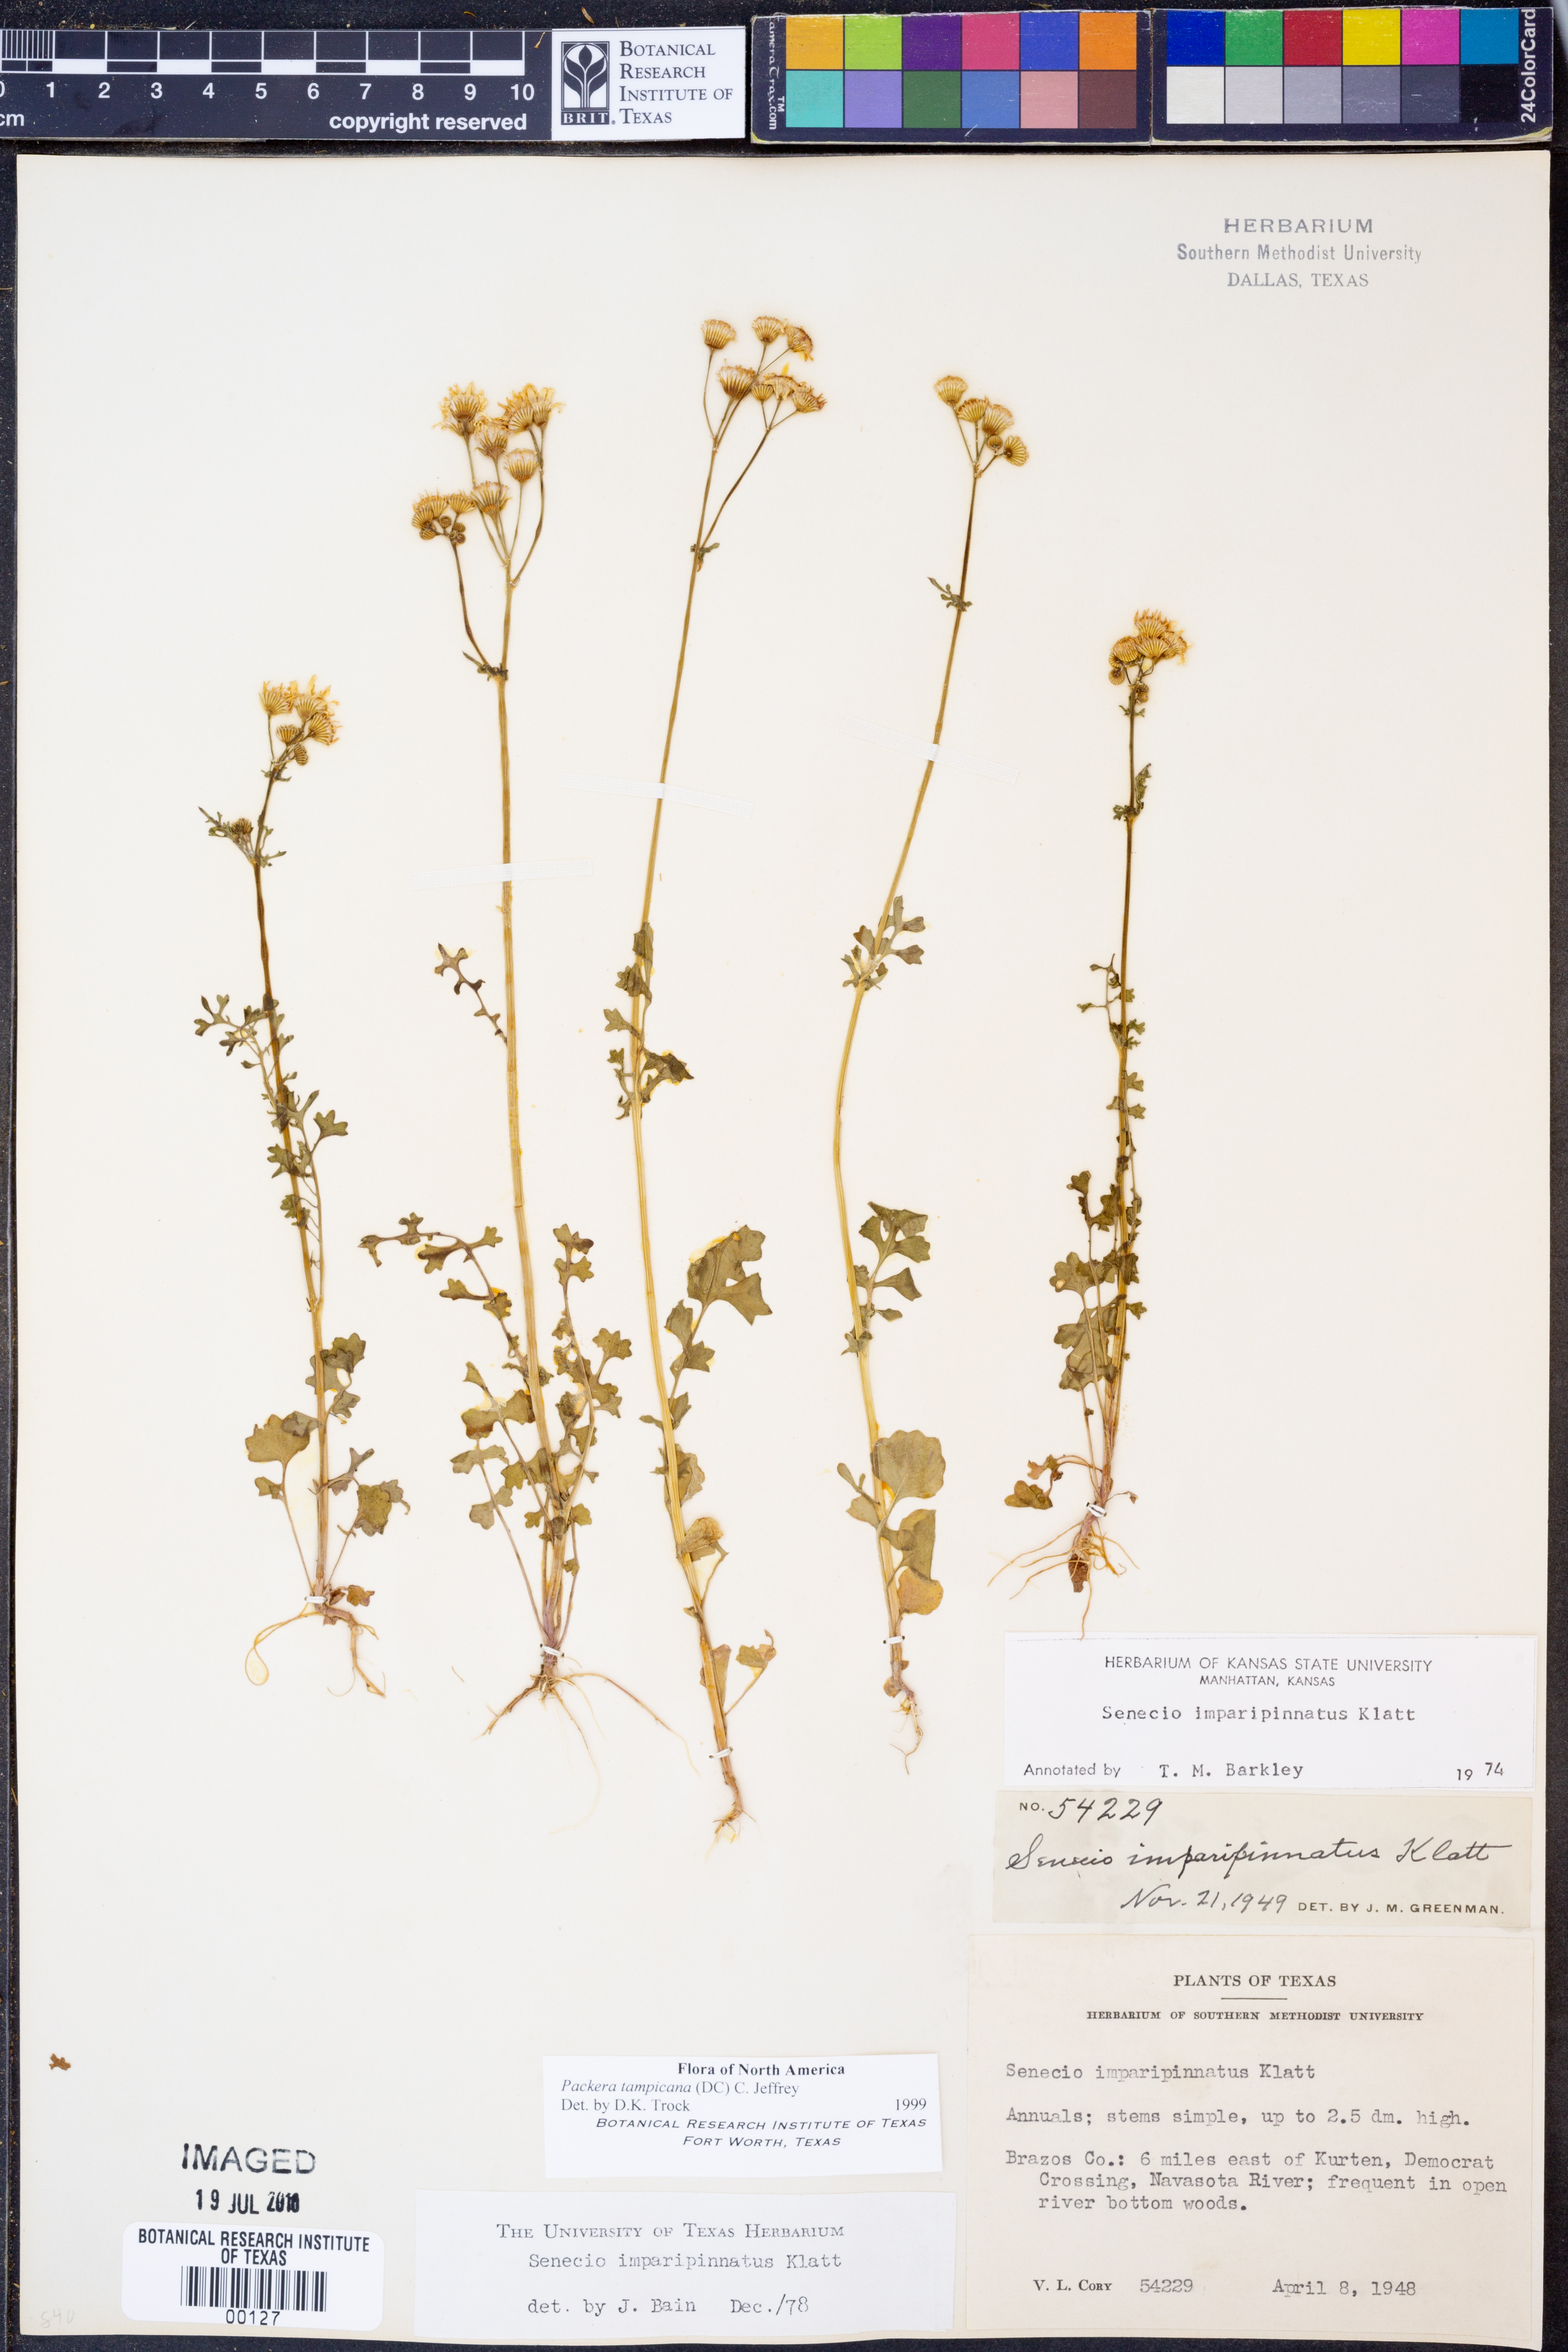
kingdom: Plantae
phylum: Tracheophyta
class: Magnoliopsida
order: Asterales
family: Asteraceae
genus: Packera
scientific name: Packera tampicana
